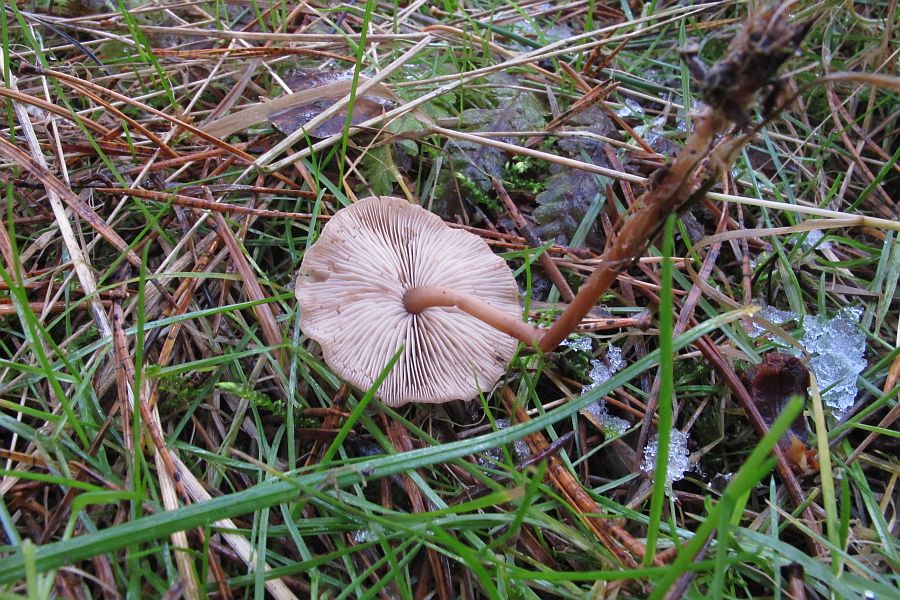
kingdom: Fungi
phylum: Basidiomycota
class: Agaricomycetes
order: Agaricales
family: Marasmiaceae
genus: Baeospora
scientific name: Baeospora myosura
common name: koglebruskhat
